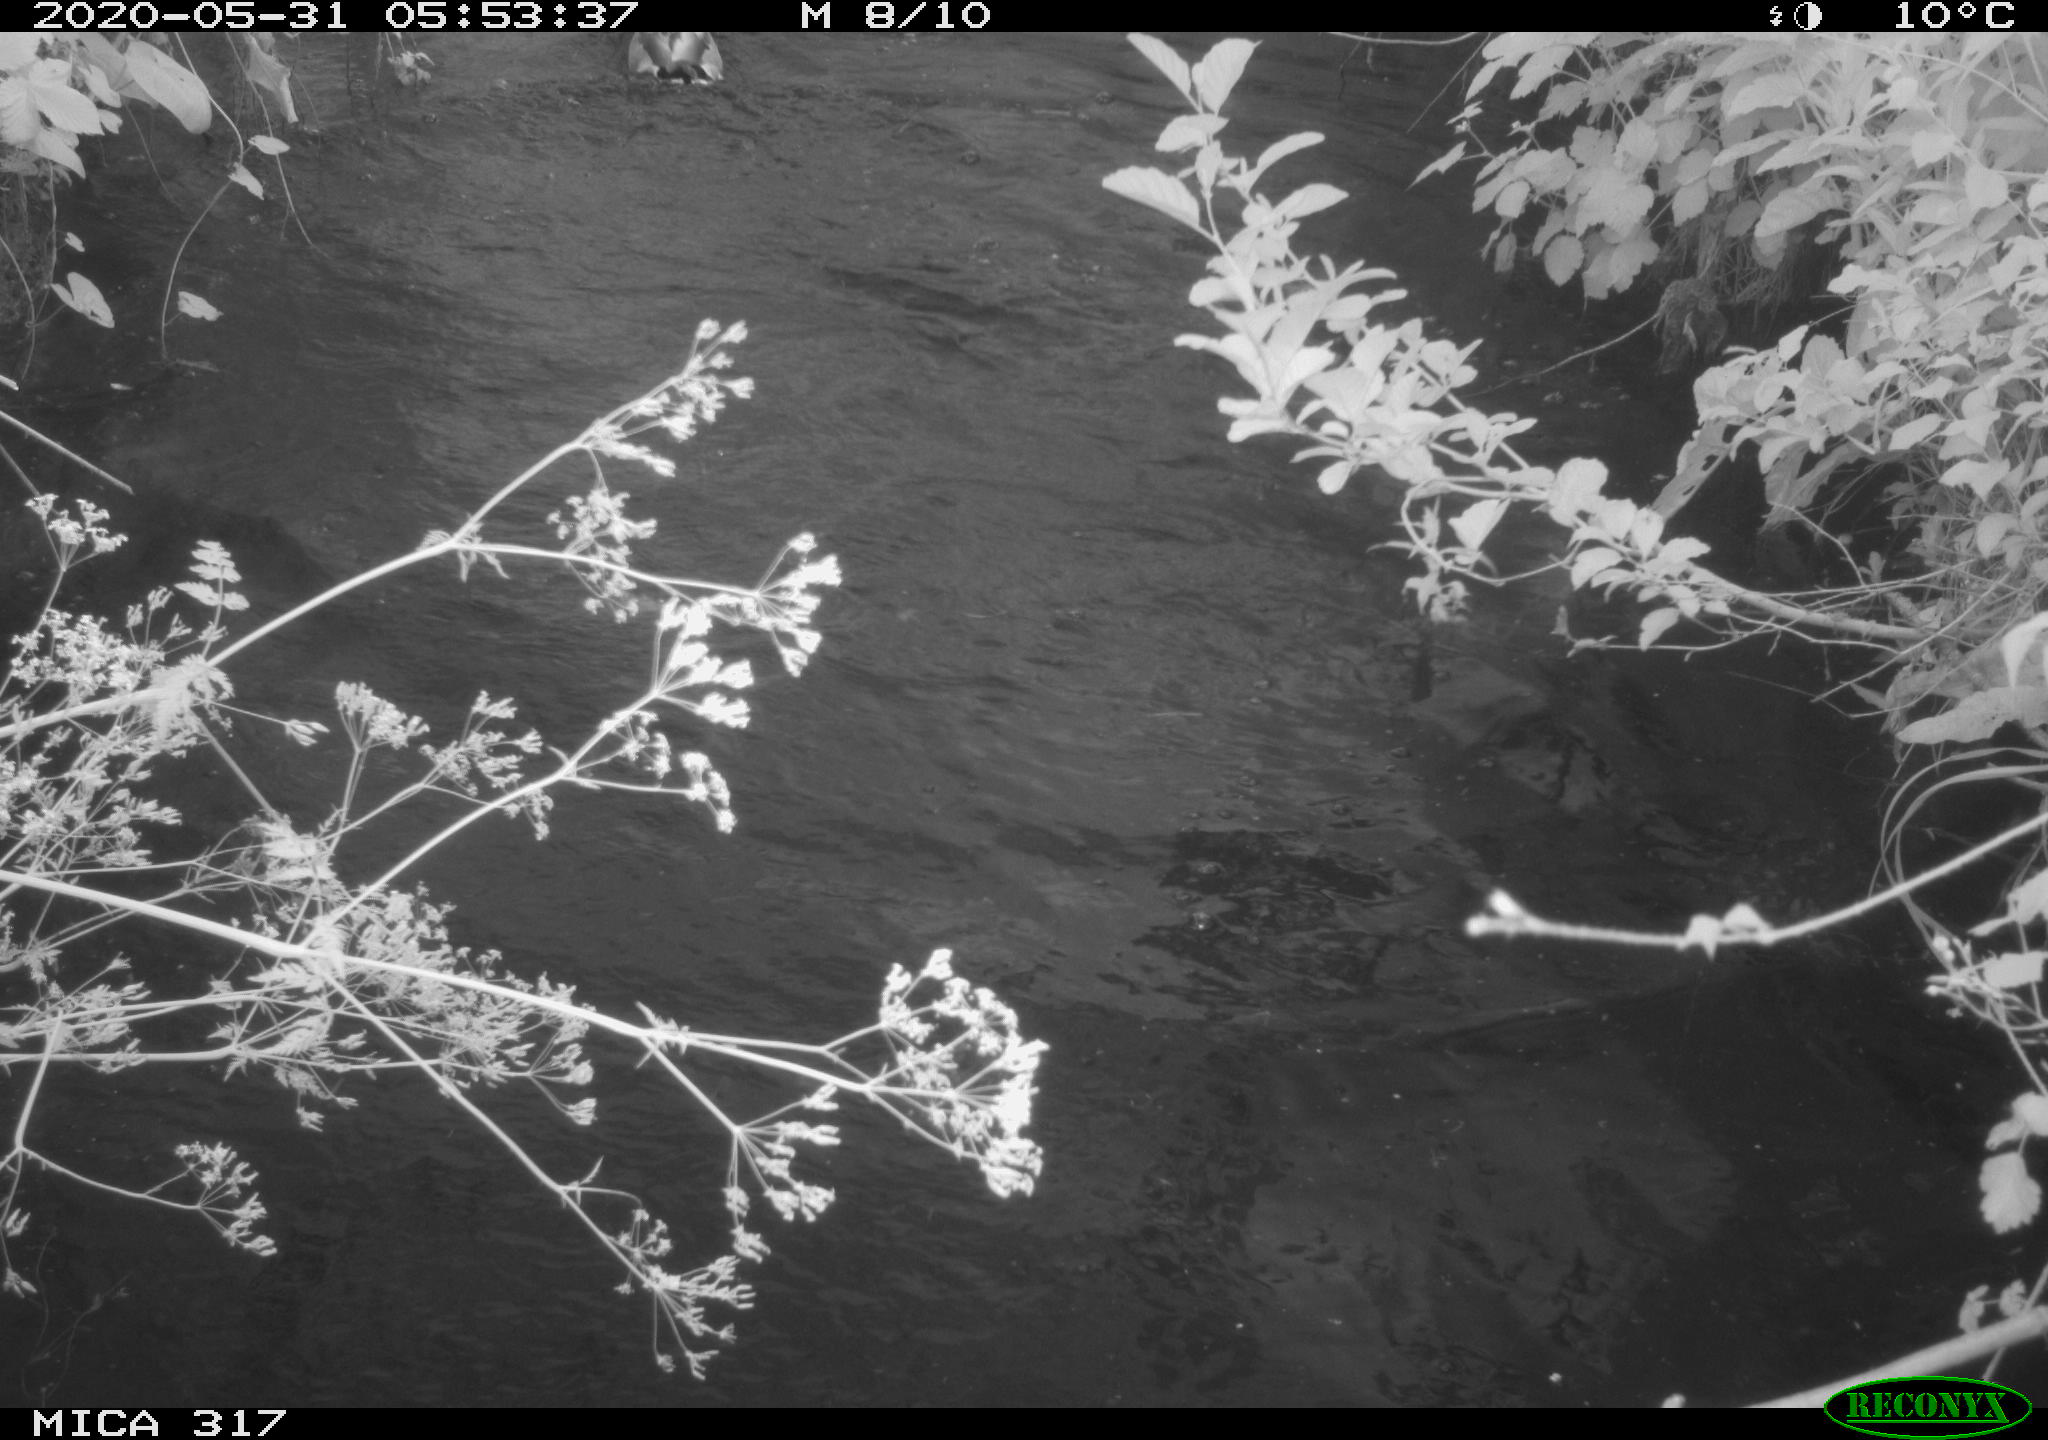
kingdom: Animalia
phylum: Chordata
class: Aves
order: Anseriformes
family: Anatidae
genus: Anas
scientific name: Anas platyrhynchos
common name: Mallard
